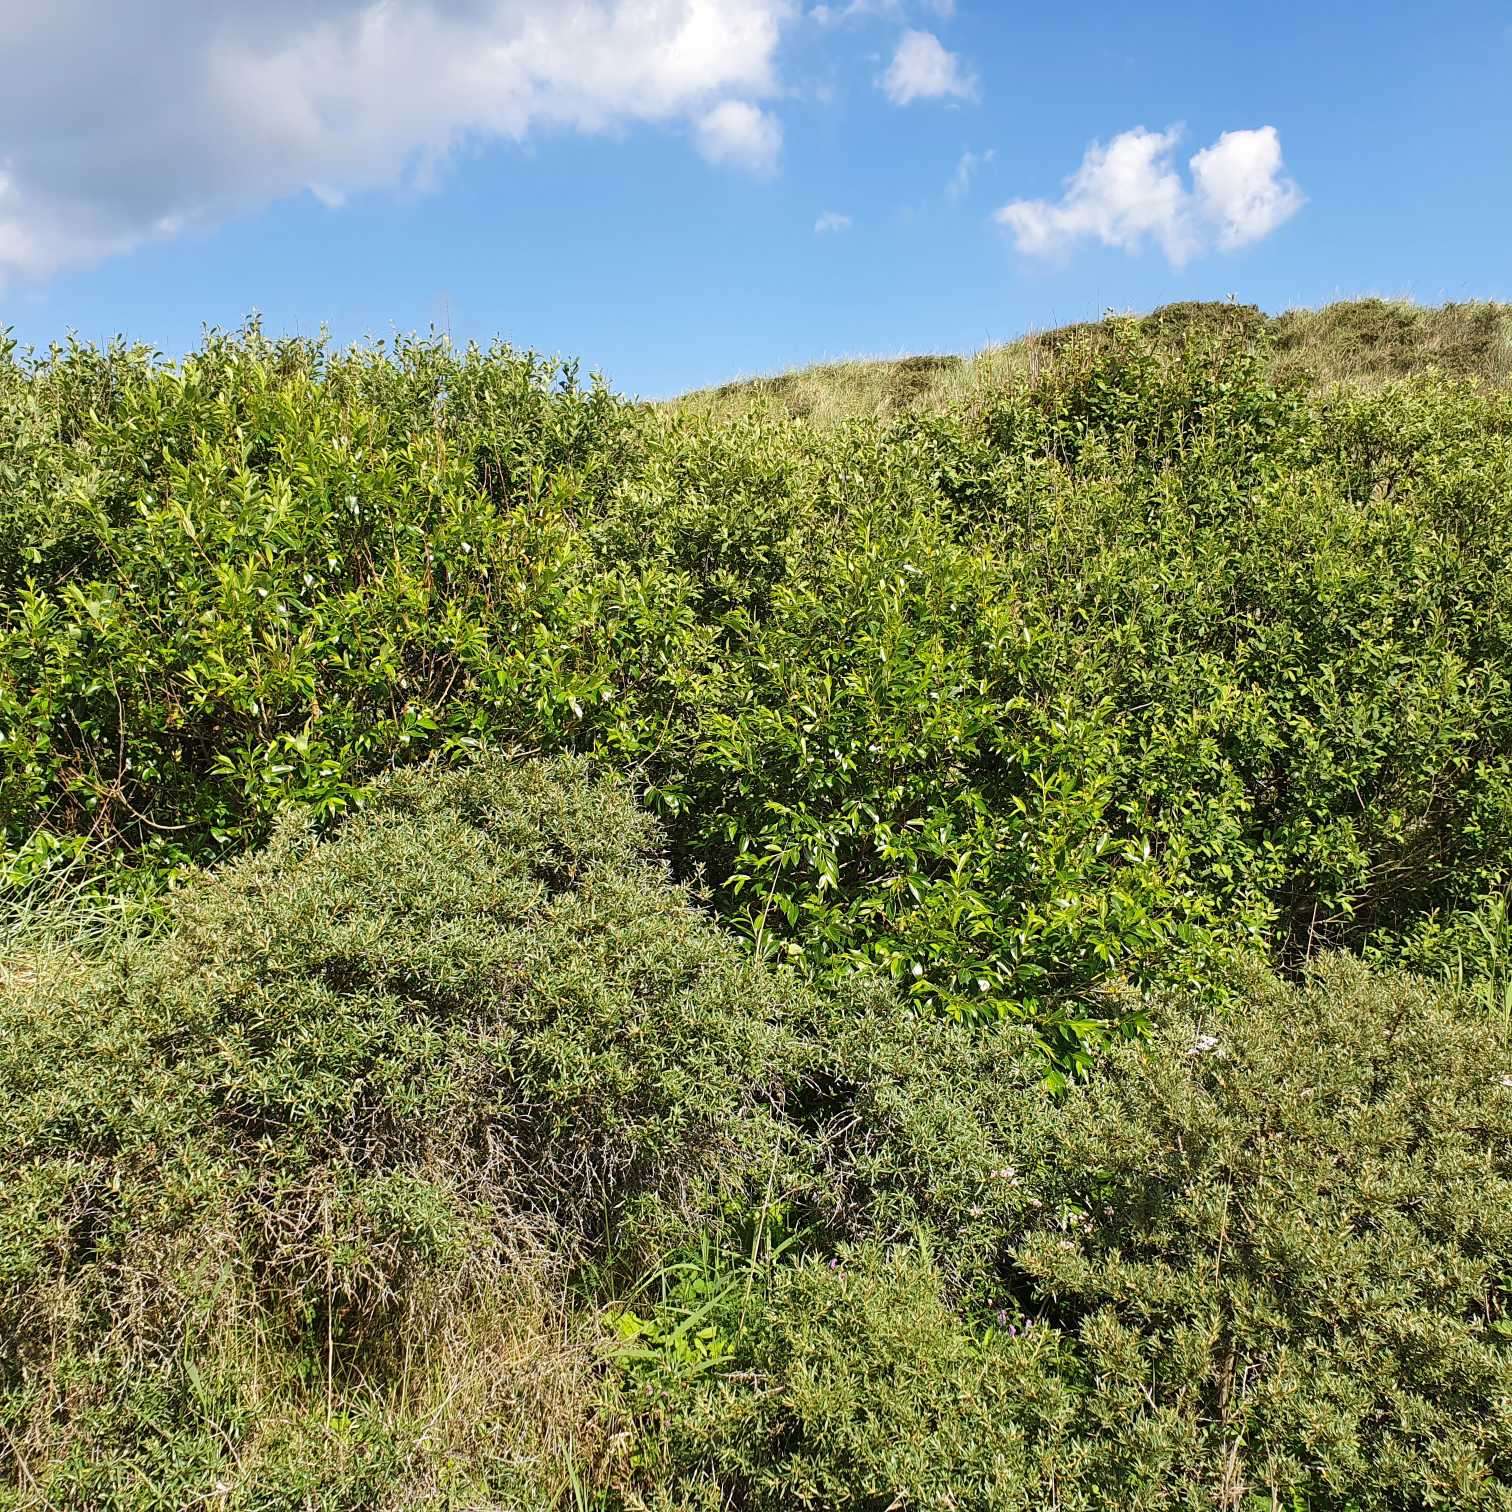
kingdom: Plantae
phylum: Tracheophyta
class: Magnoliopsida
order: Malpighiales
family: Salicaceae
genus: Salix
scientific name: Salix pentandra
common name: Femhannet pil
